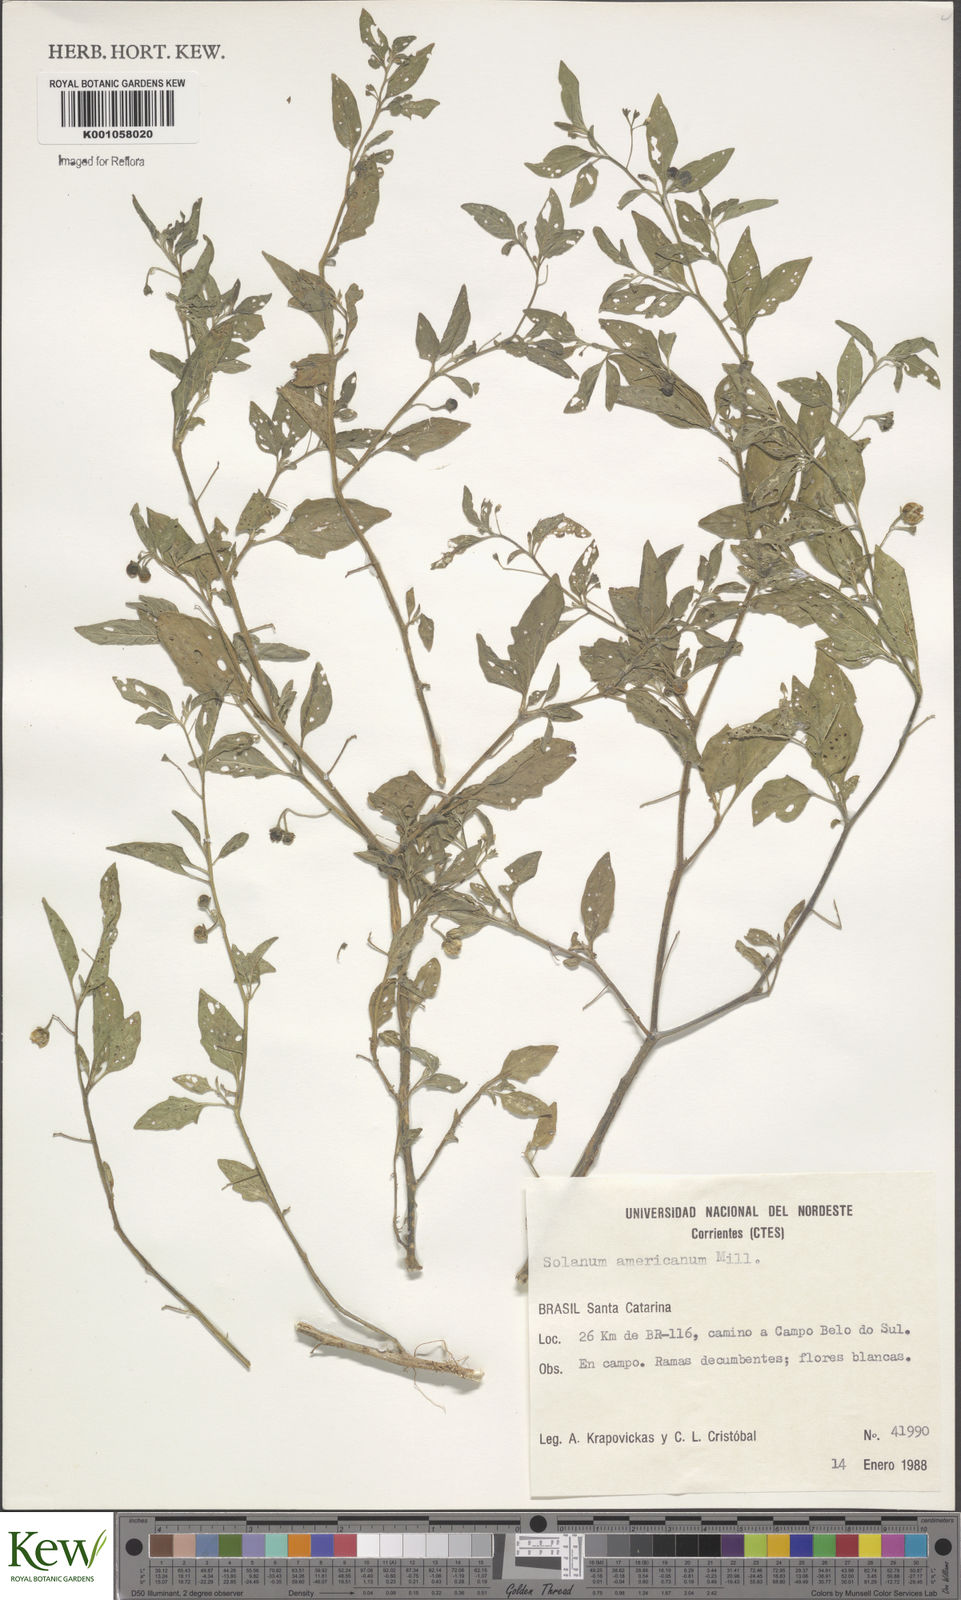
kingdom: Plantae
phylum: Tracheophyta
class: Magnoliopsida
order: Solanales
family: Solanaceae
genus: Solanum
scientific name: Solanum americanum
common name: American black nightshade
